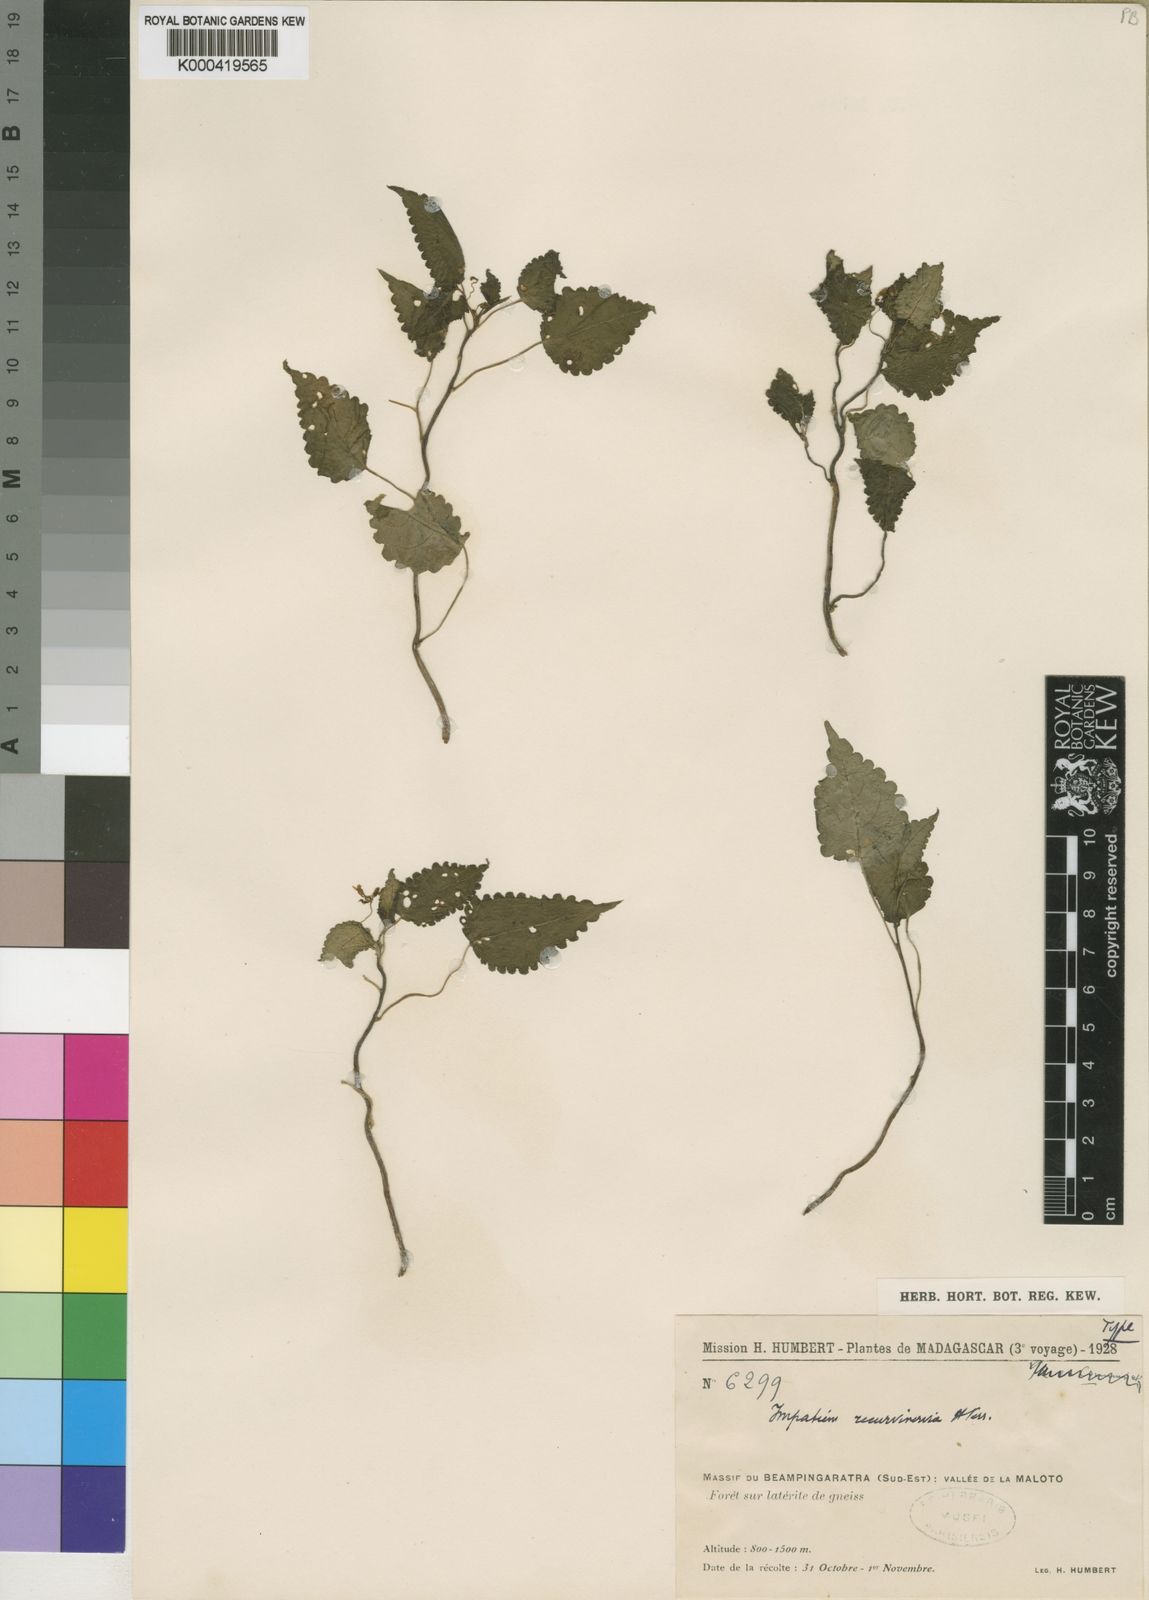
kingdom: Plantae
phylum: Tracheophyta
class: Magnoliopsida
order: Ericales
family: Balsaminaceae
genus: Impatiens
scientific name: Impatiens humbertii
